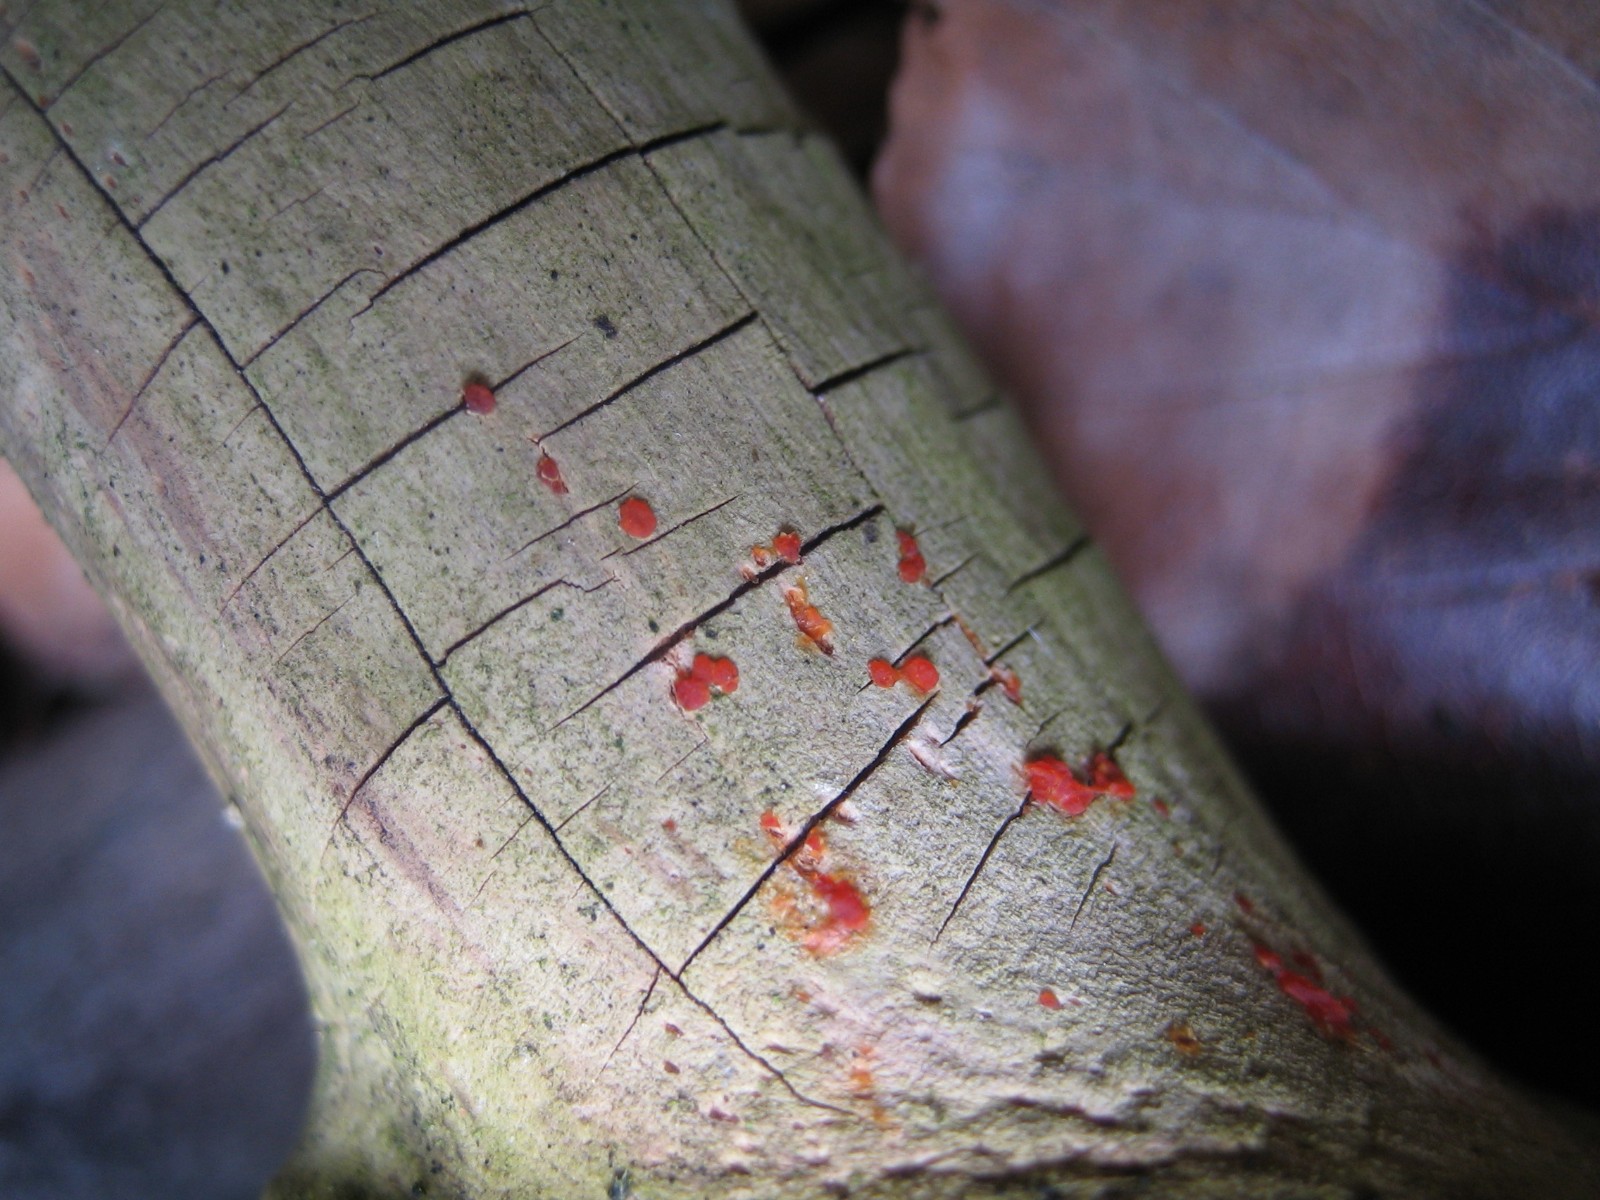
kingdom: Fungi
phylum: Basidiomycota
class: Dacrymycetes
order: Dacrymycetales
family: Dacrymycetaceae
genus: Dacrymyces
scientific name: Dacrymyces stillatus
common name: almindelig tåresvamp
